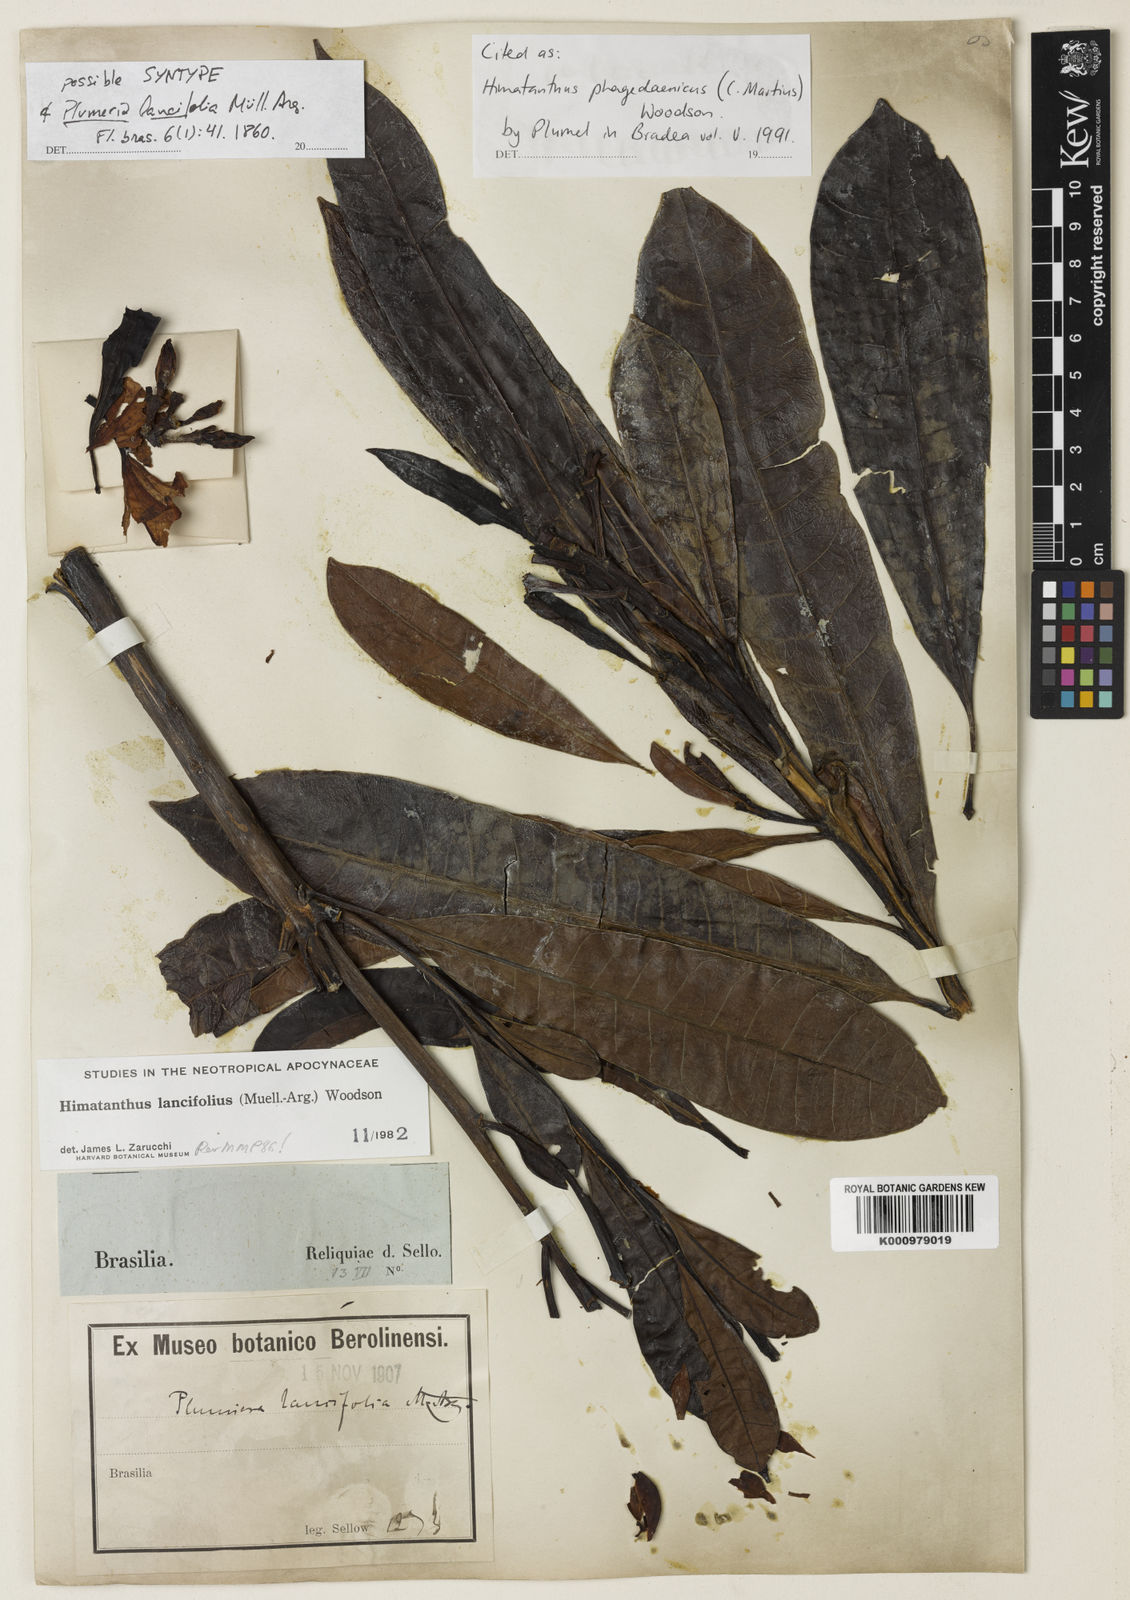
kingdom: Plantae
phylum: Tracheophyta
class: Magnoliopsida
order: Gentianales
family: Apocynaceae
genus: Himatanthus
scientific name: Himatanthus phagedaenicus
